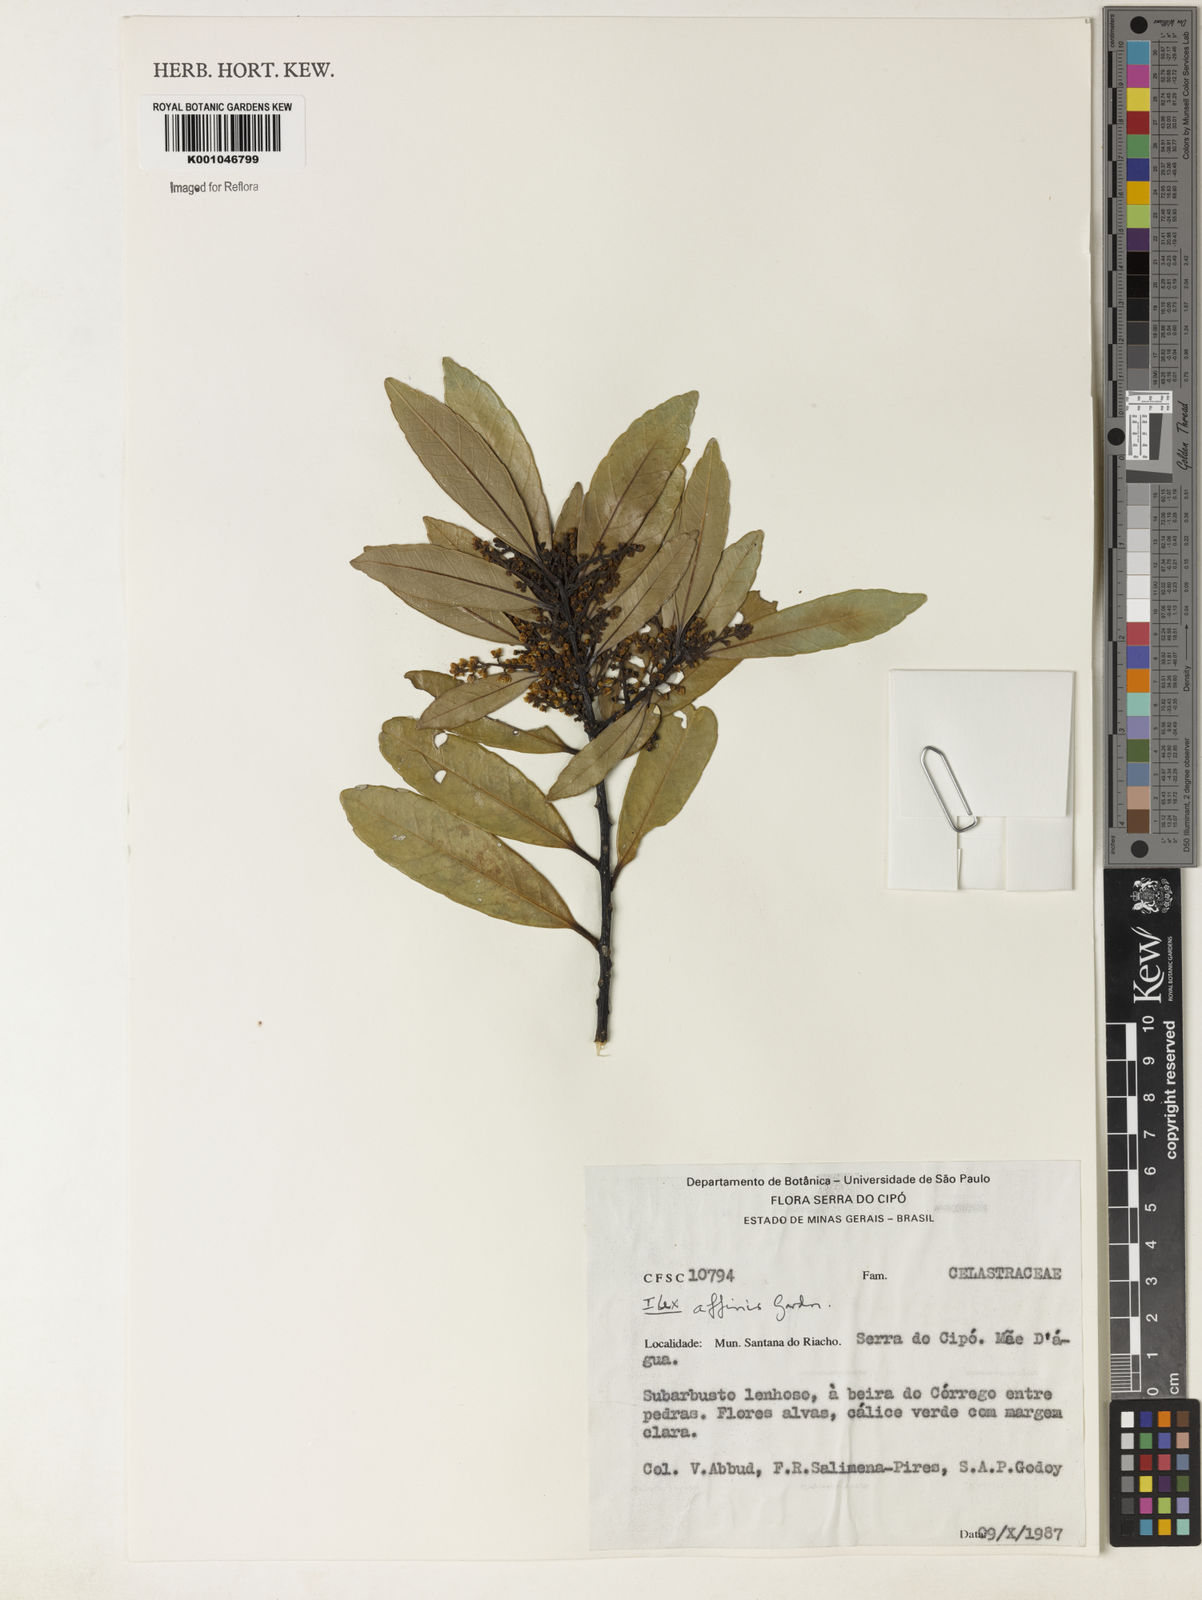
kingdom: Plantae
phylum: Tracheophyta
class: Magnoliopsida
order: Aquifoliales
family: Aquifoliaceae
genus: Ilex
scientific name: Ilex angustissima
